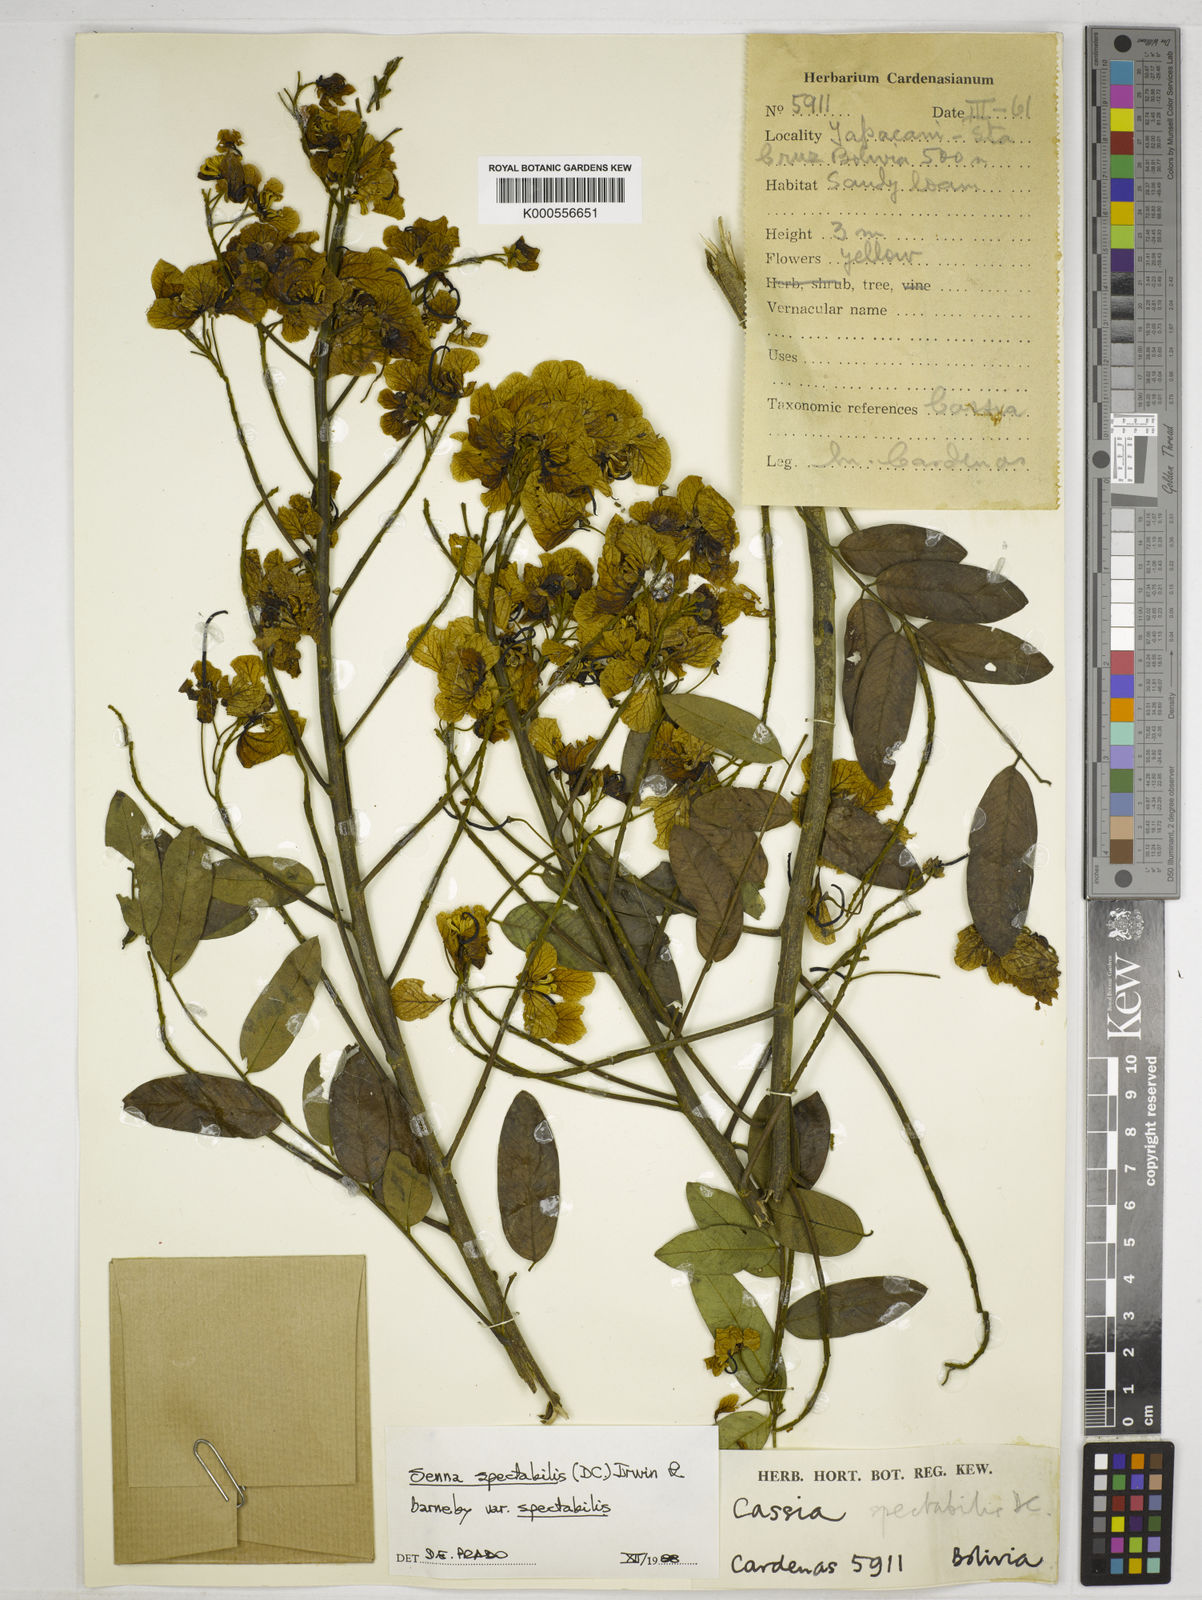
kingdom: Plantae
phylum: Tracheophyta
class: Magnoliopsida
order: Fabales
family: Fabaceae
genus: Senna
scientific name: Senna spectabilis
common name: Casia amarilla
